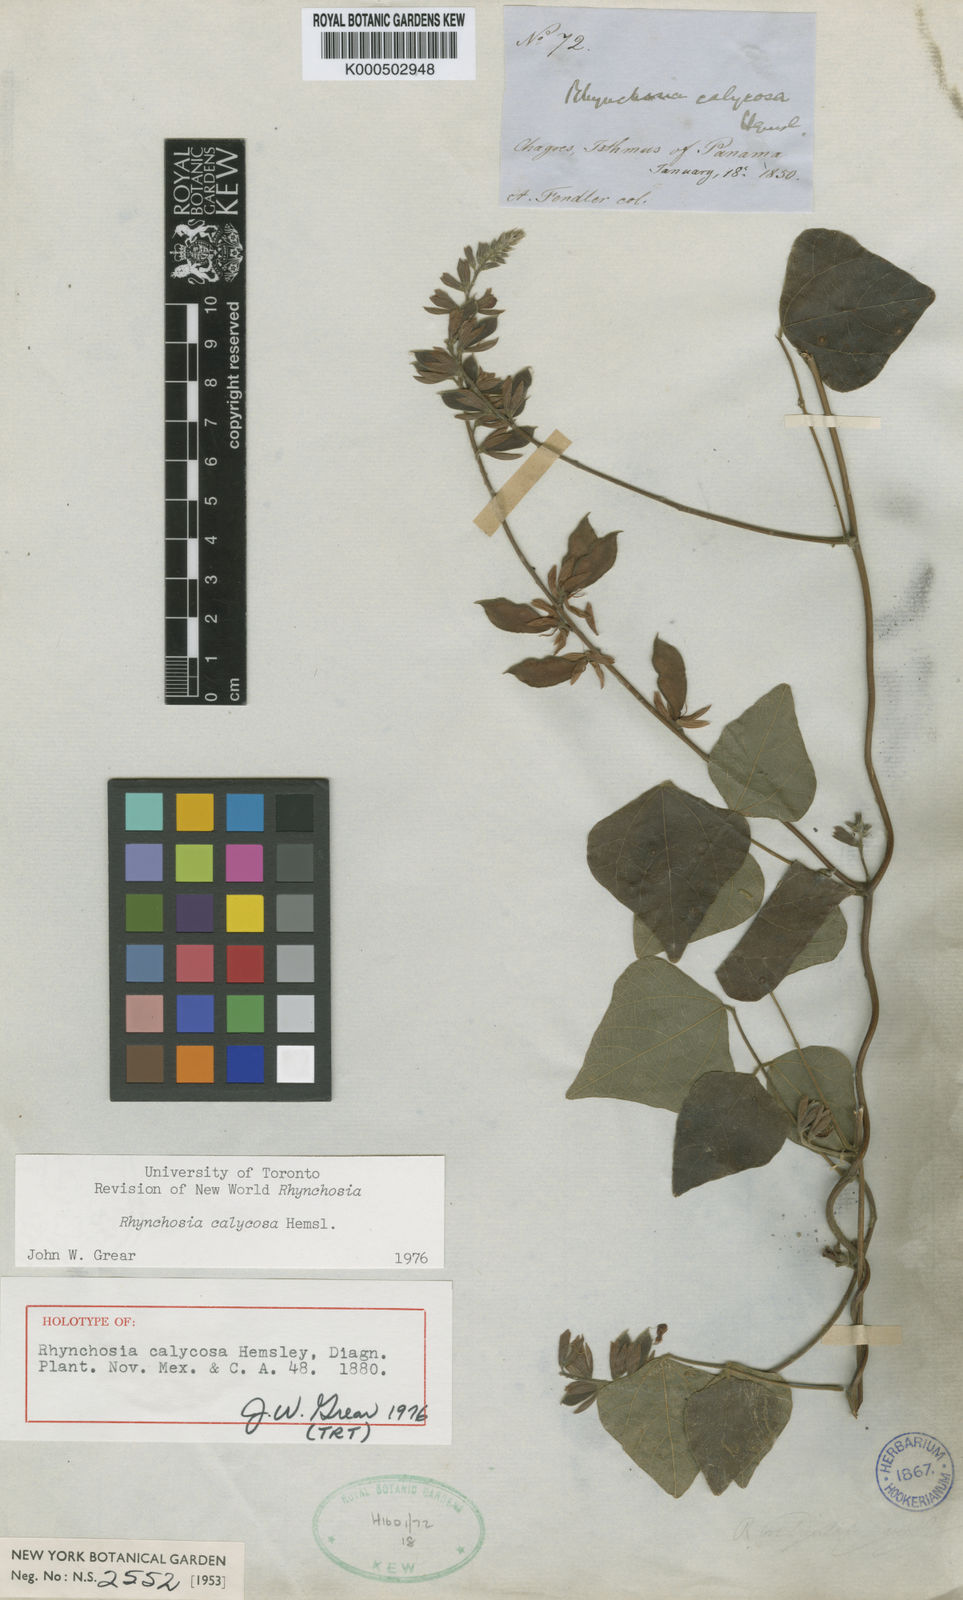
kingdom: Plantae
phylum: Tracheophyta
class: Magnoliopsida
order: Fabales
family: Fabaceae
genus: Rhynchosia
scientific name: Rhynchosia calycosa
